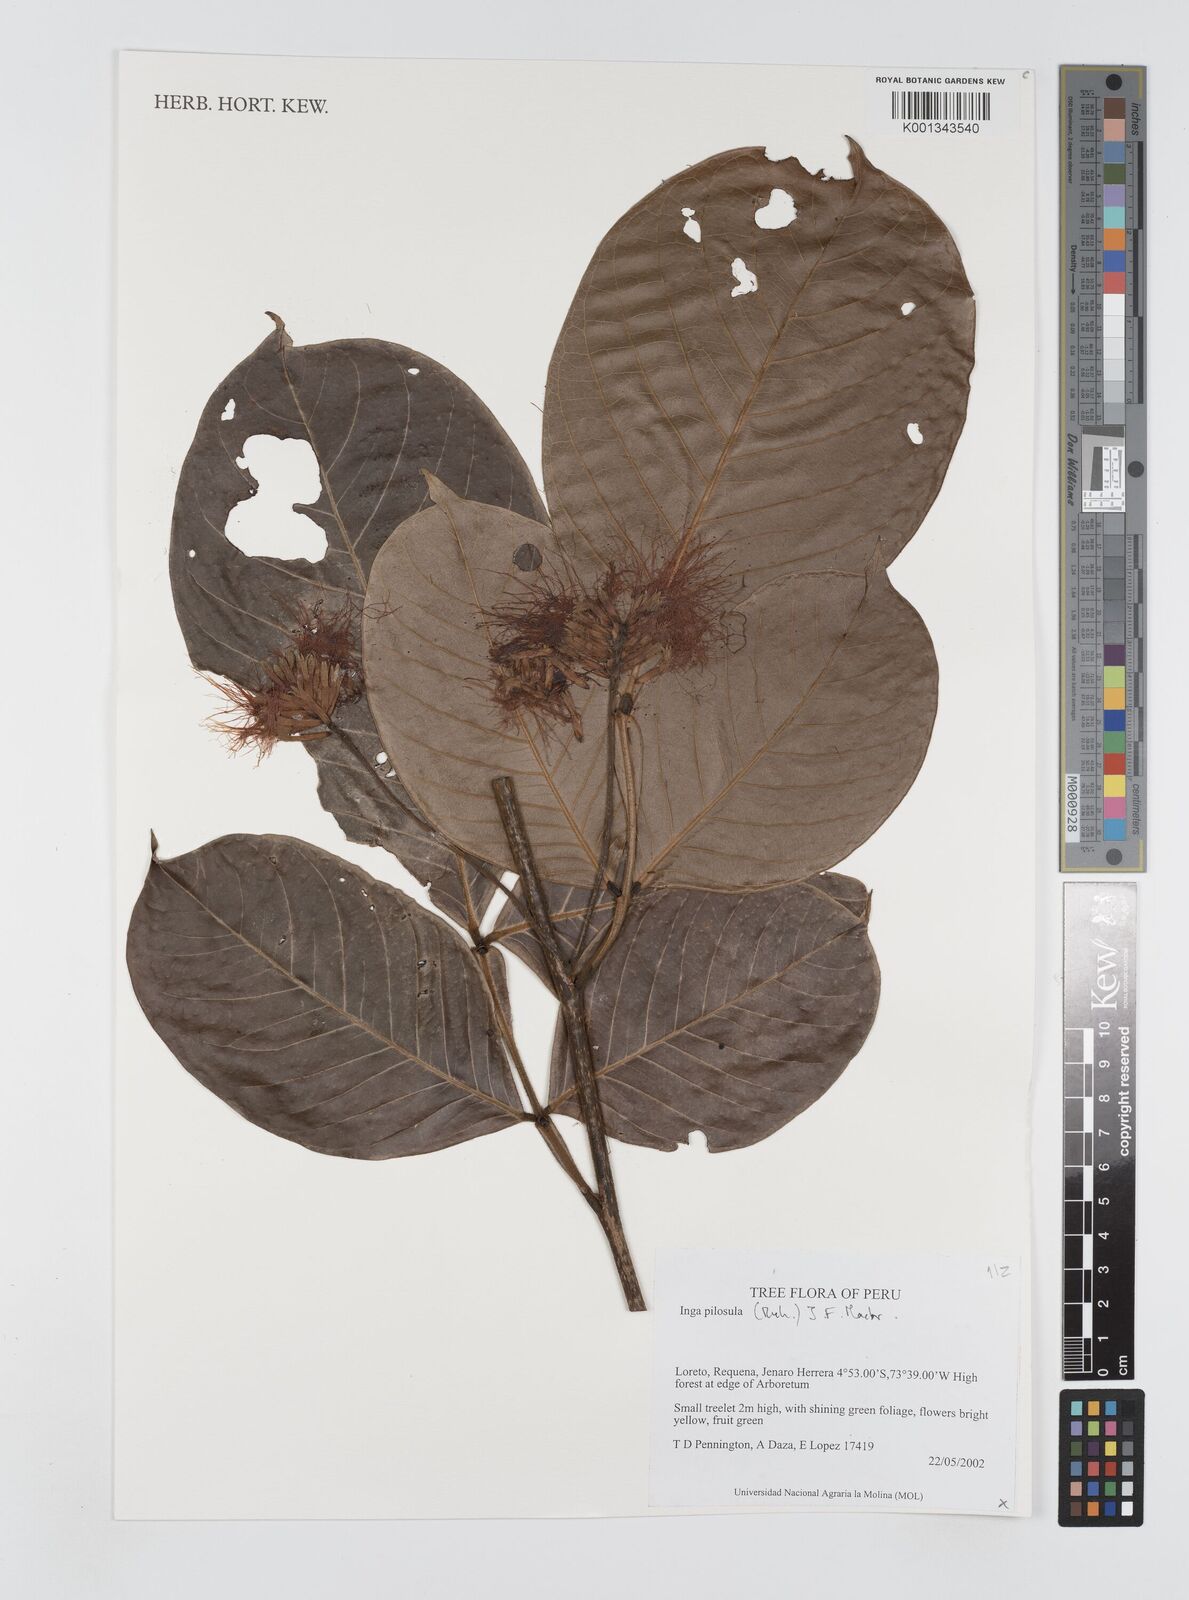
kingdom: Plantae
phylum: Tracheophyta
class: Magnoliopsida
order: Fabales
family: Fabaceae
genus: Inga
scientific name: Inga pilosula
